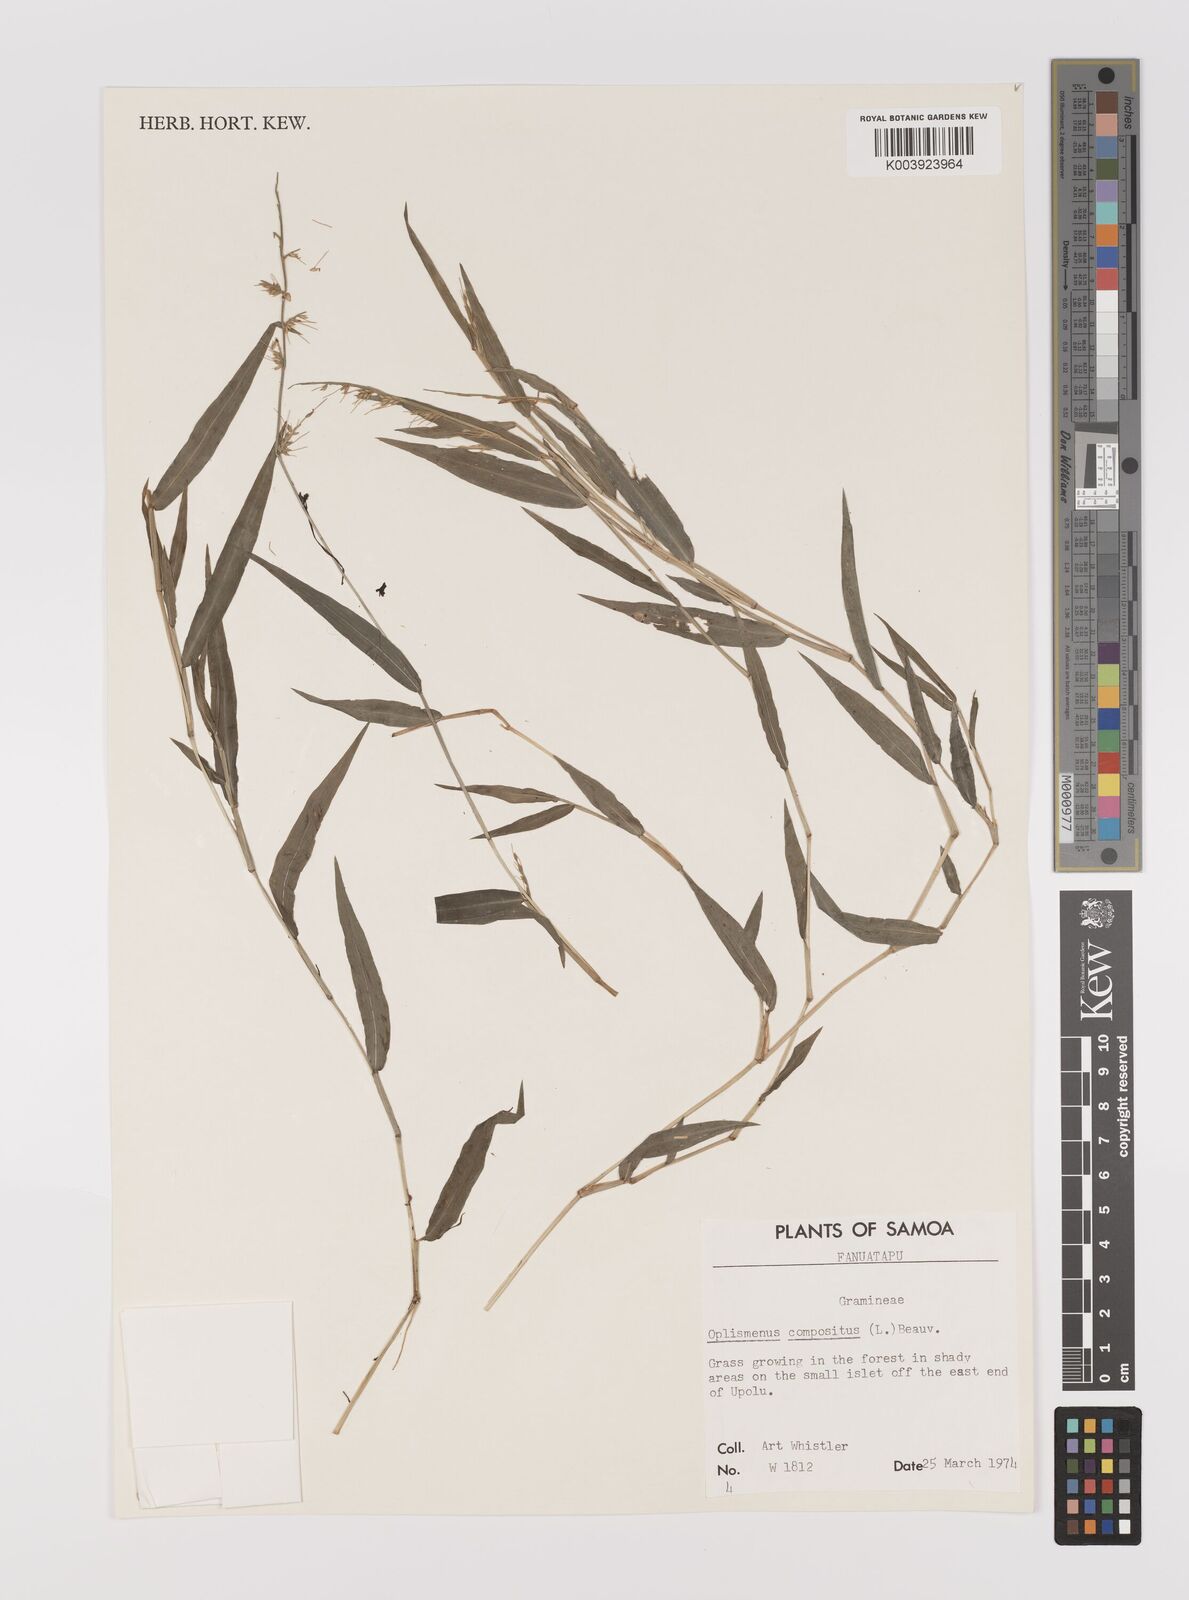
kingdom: Plantae
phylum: Tracheophyta
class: Liliopsida
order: Poales
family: Poaceae
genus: Oplismenus
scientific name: Oplismenus compositus
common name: Running mountain grass
